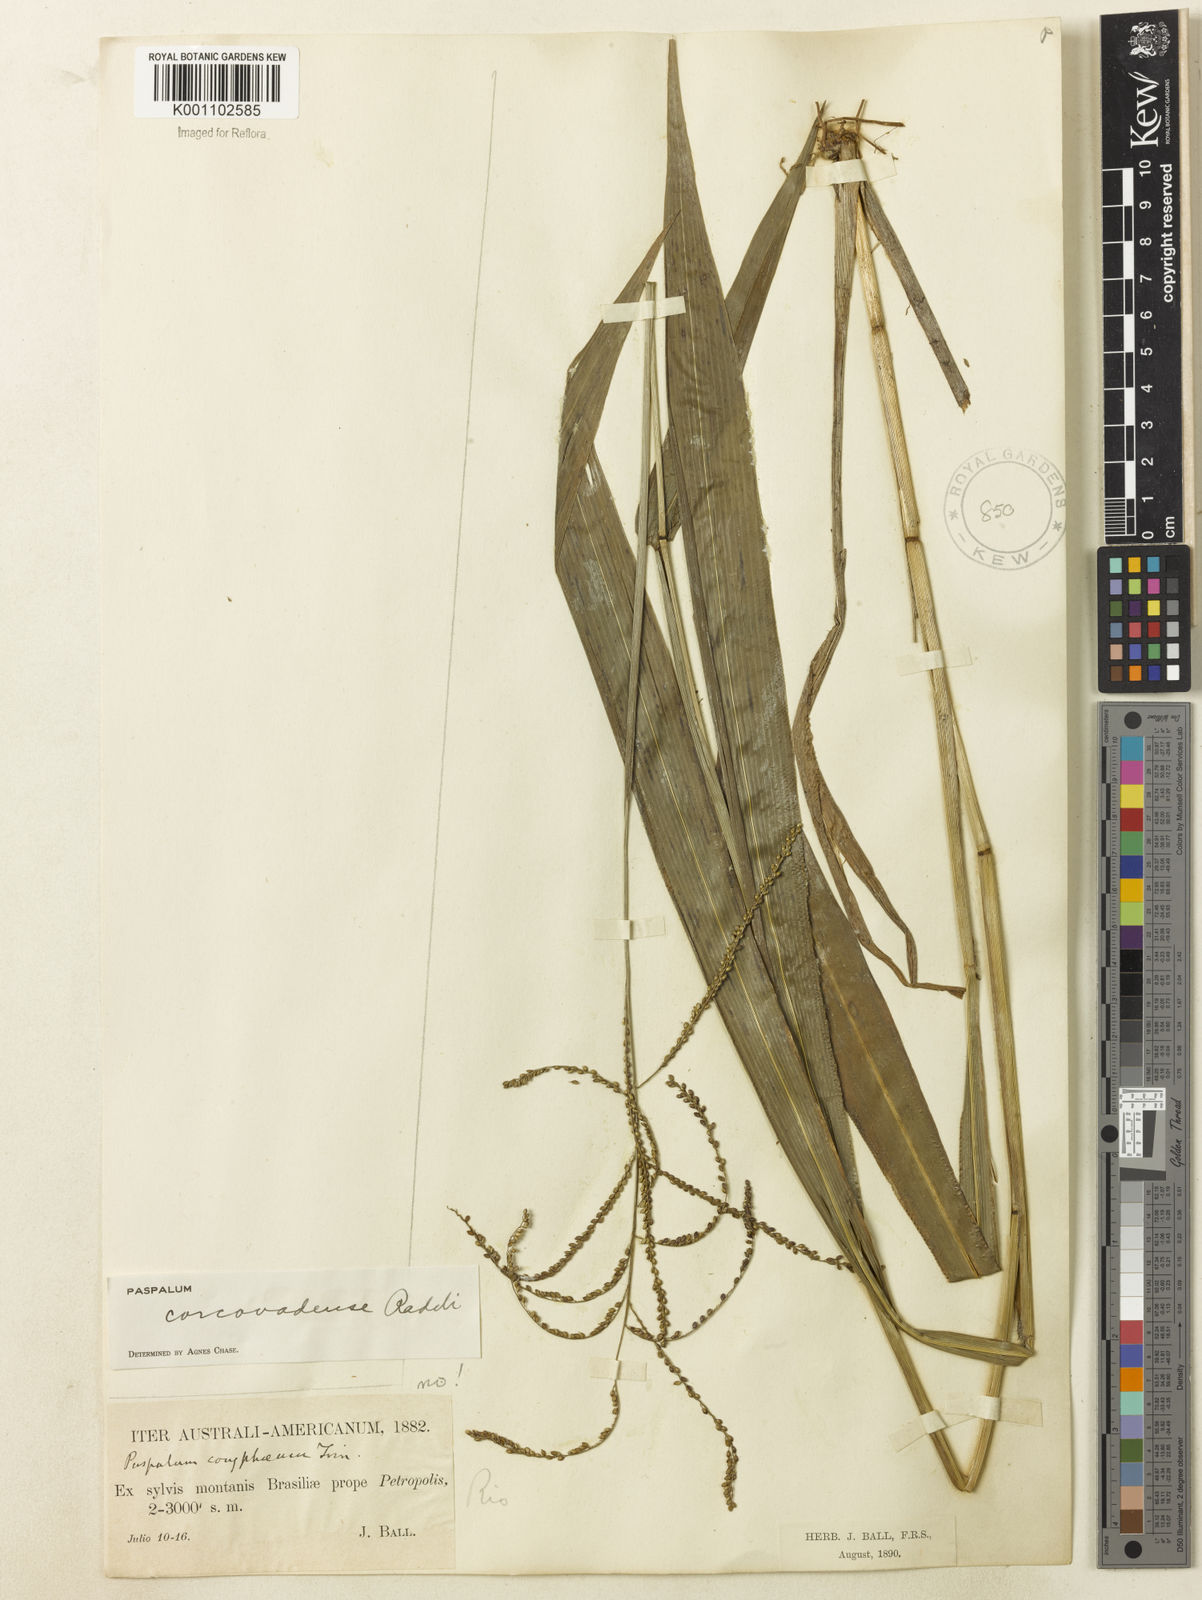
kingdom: Plantae
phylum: Tracheophyta
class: Liliopsida
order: Poales
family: Poaceae
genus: Paspalum
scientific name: Paspalum corcovadense
